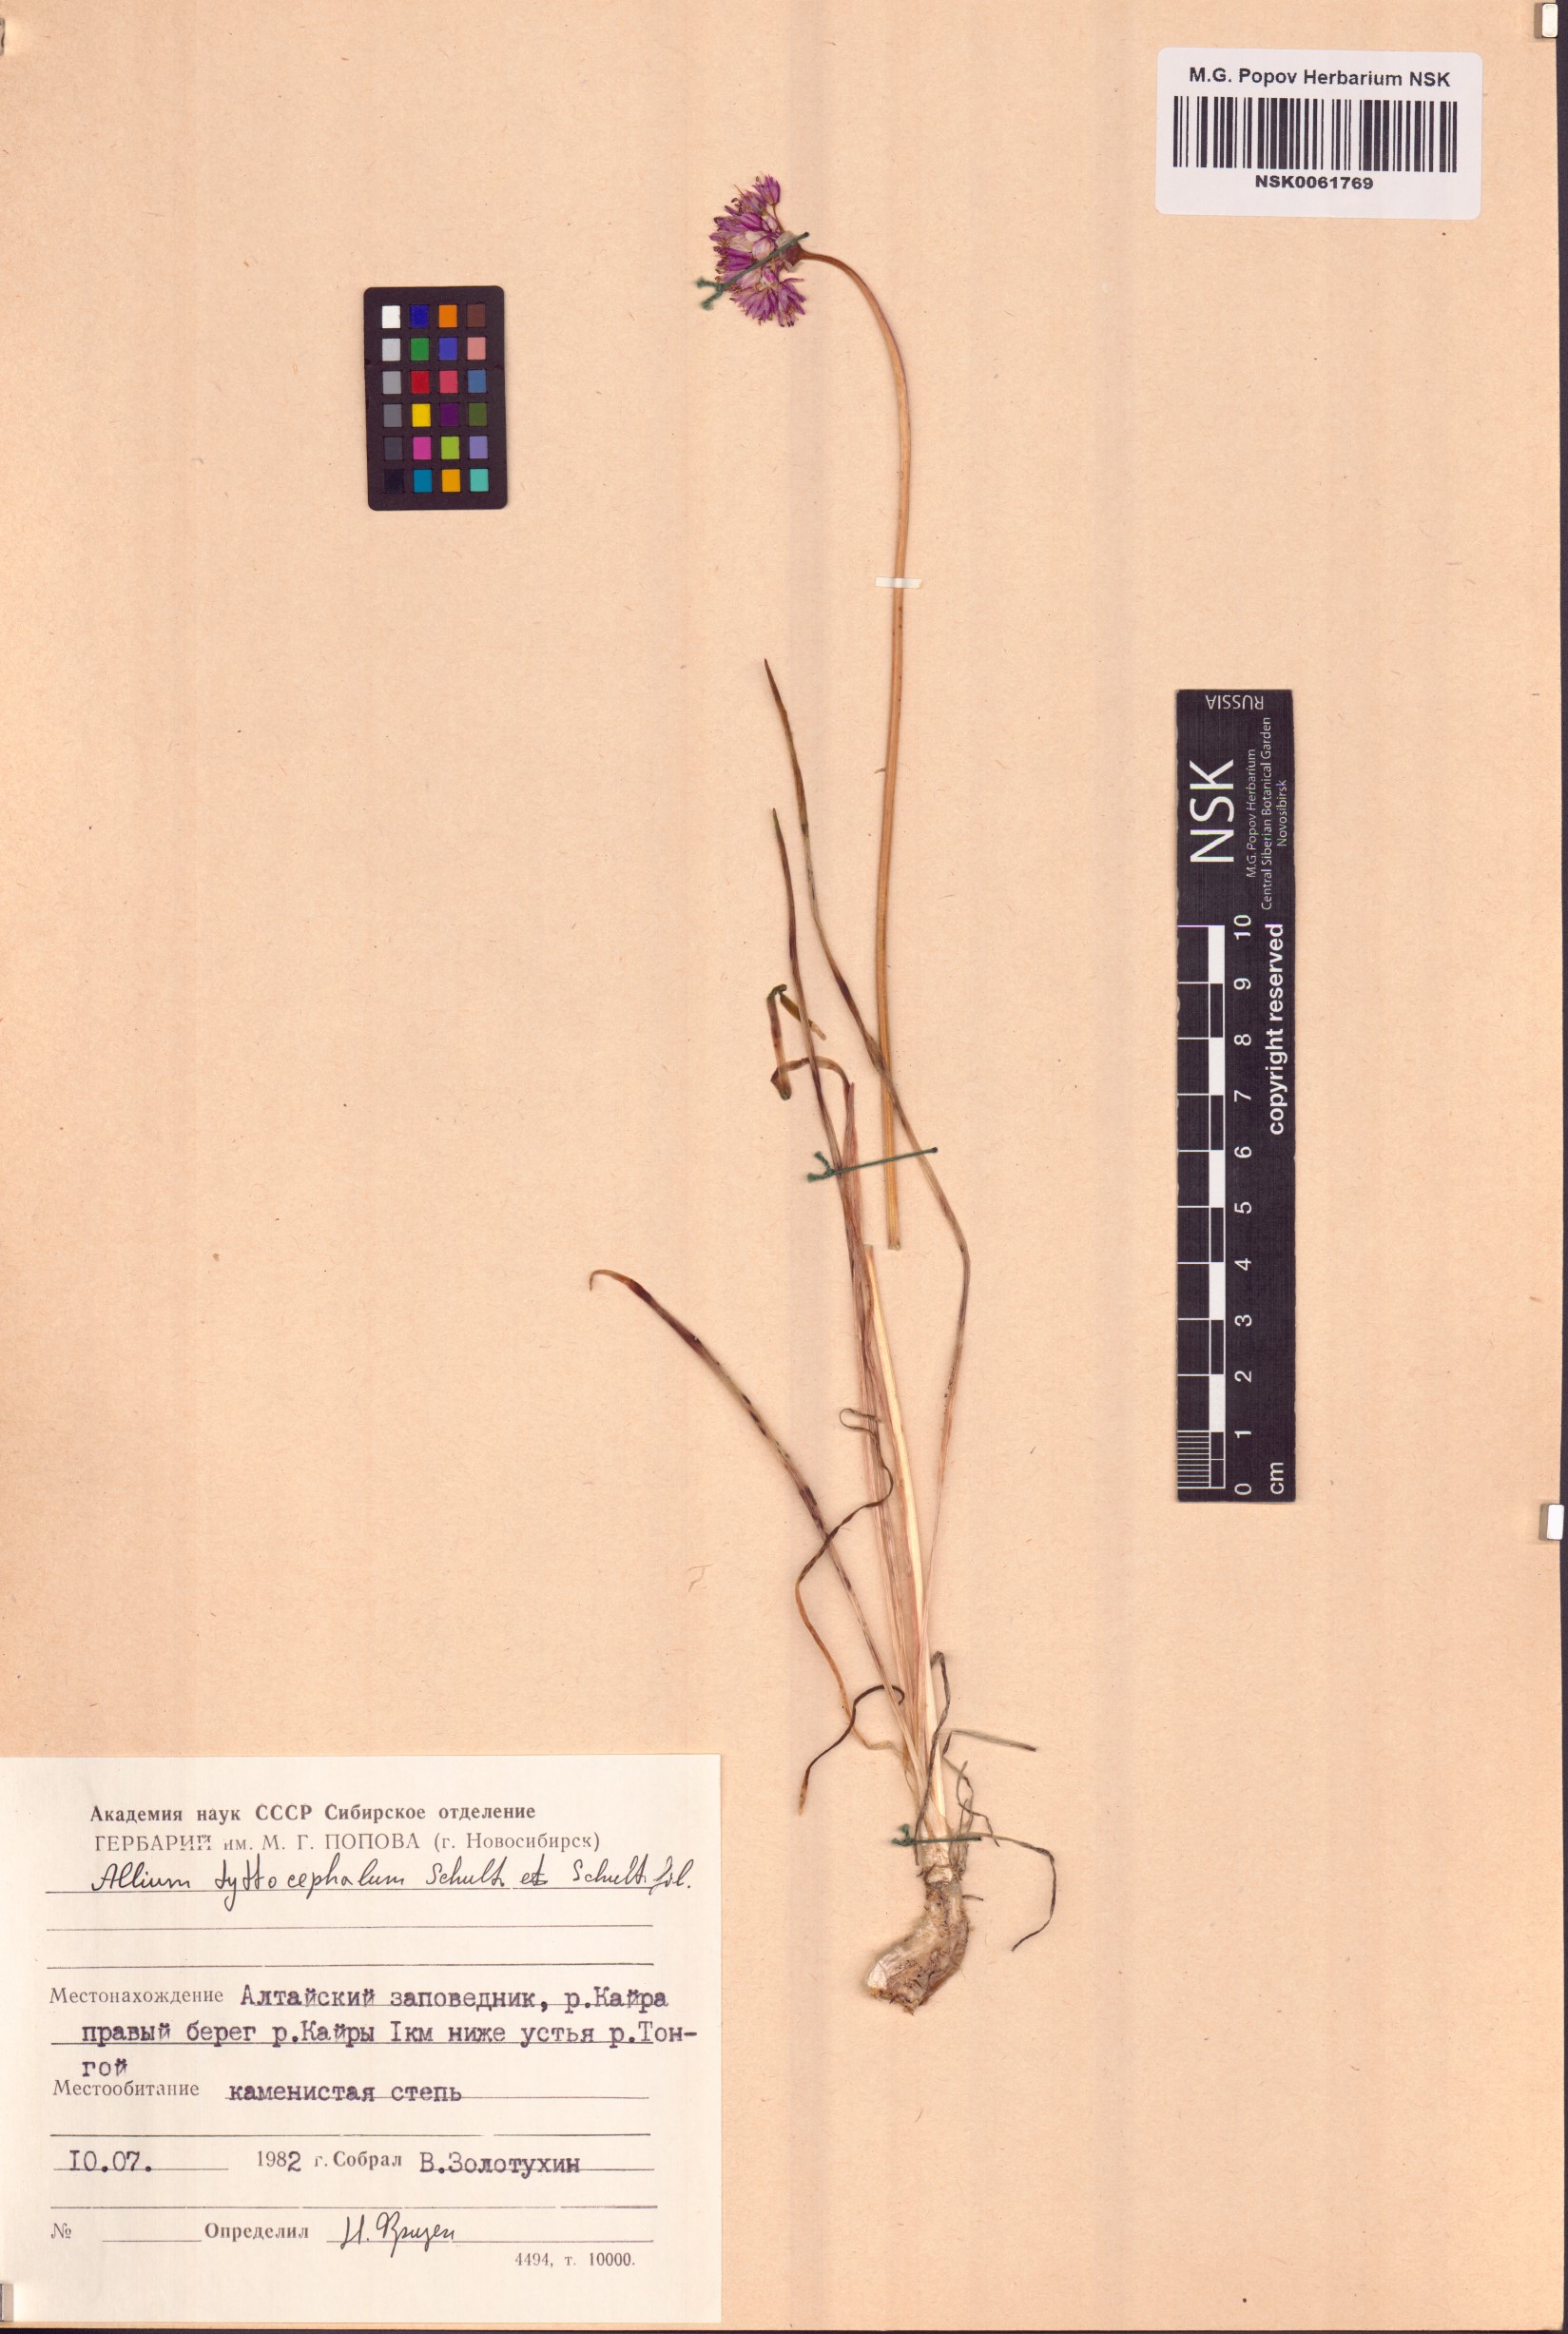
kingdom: Plantae
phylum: Tracheophyta
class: Liliopsida
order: Asparagales
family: Amaryllidaceae
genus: Allium
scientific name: Allium tytthocephalum
